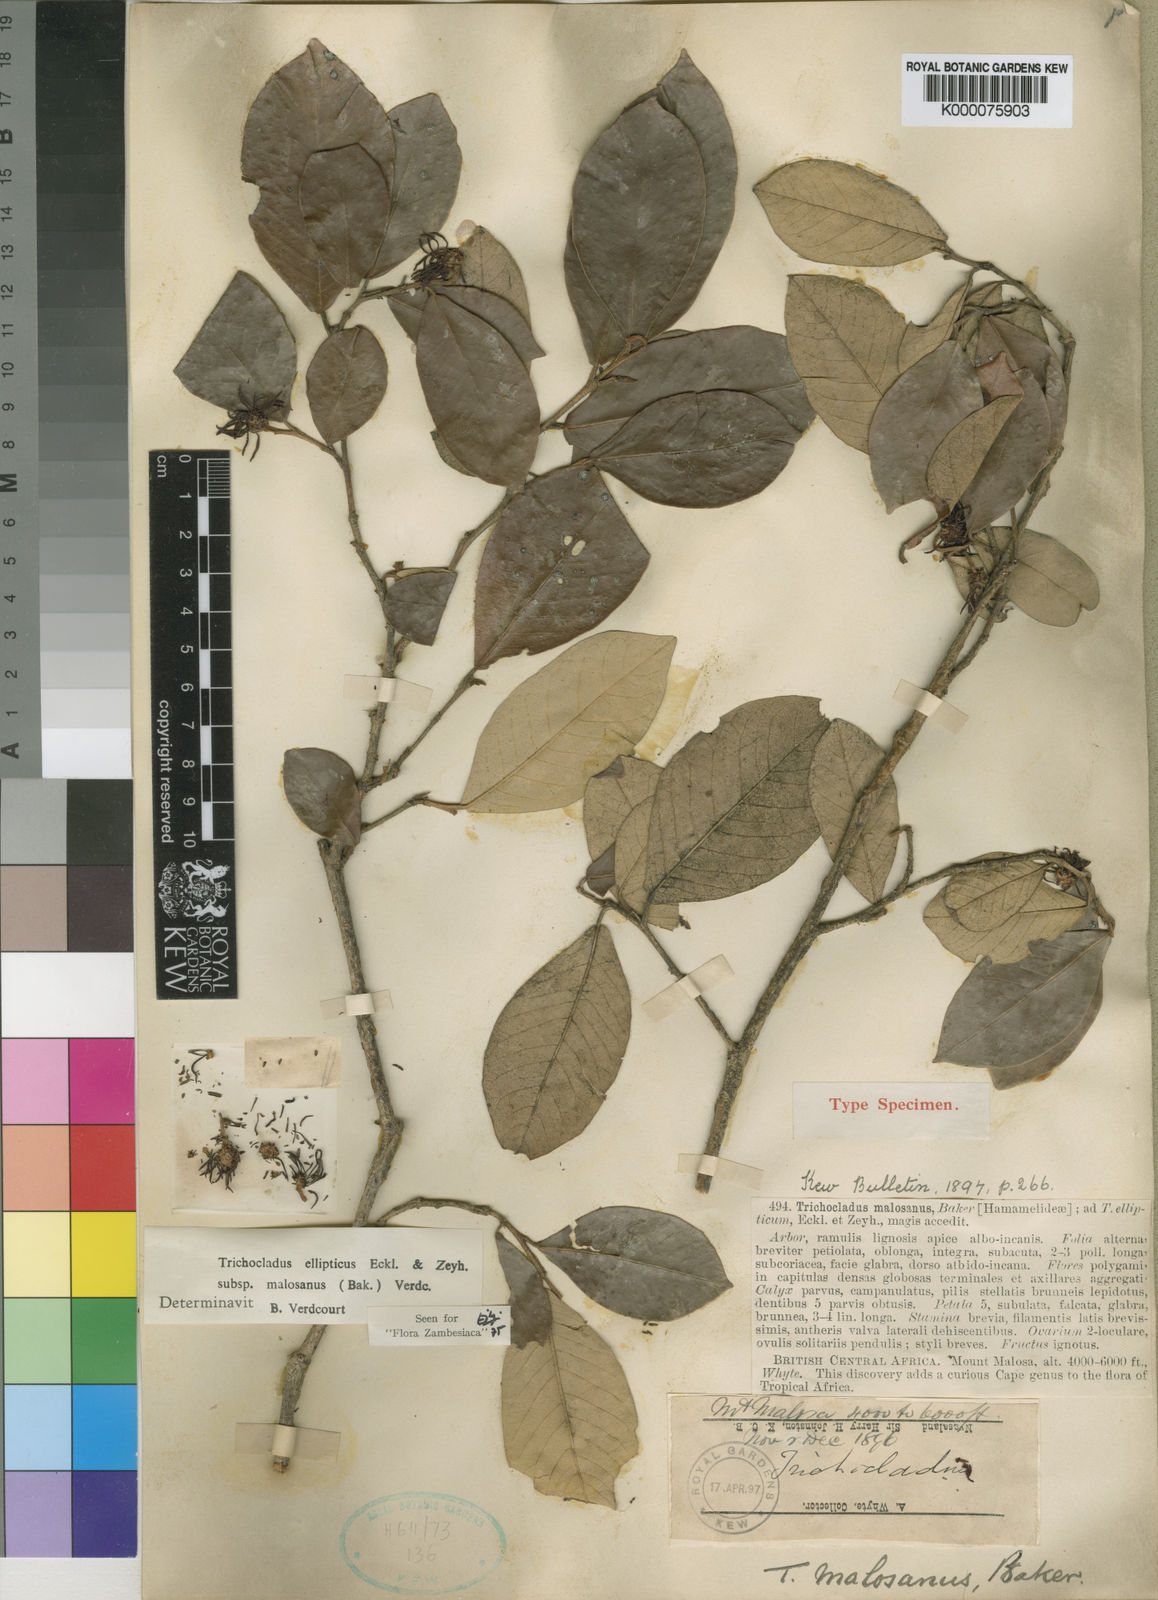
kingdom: Plantae
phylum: Tracheophyta
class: Magnoliopsida
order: Saxifragales
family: Hamamelidaceae
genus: Trichocladus
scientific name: Trichocladus ellipticus
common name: White witch-hazel
